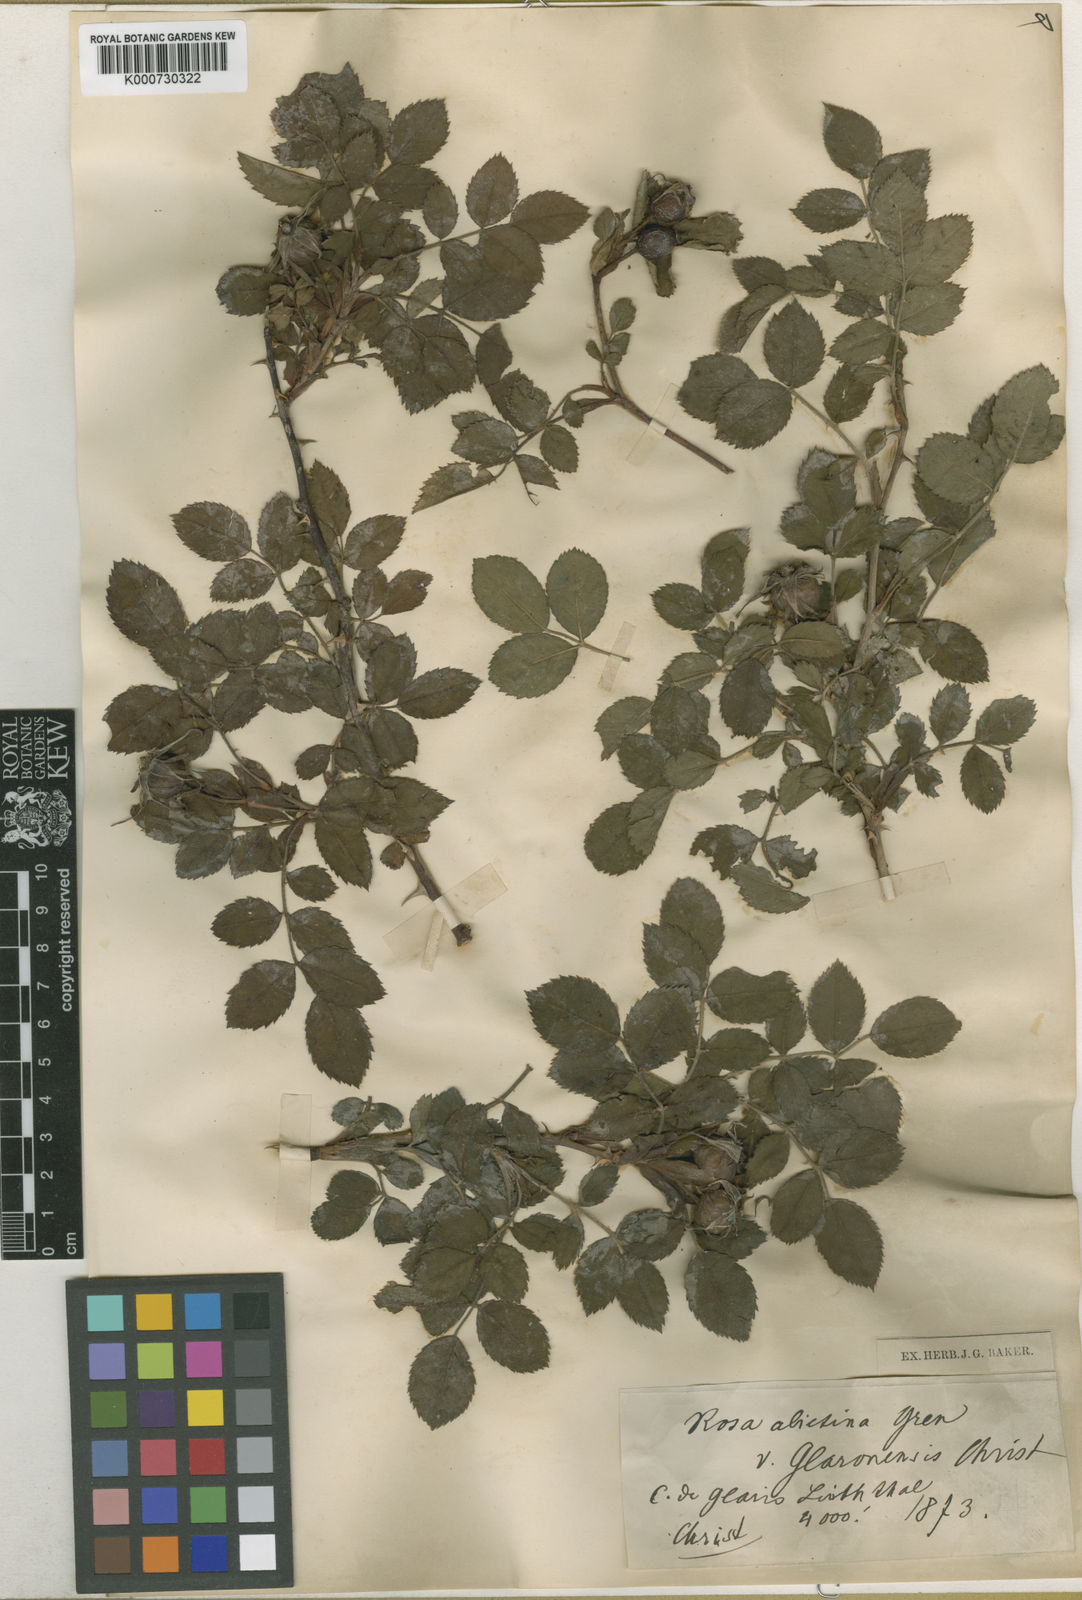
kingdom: Plantae
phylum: Tracheophyta
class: Magnoliopsida
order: Rosales
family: Rosaceae
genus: Rosa
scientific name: Rosa uriensis
